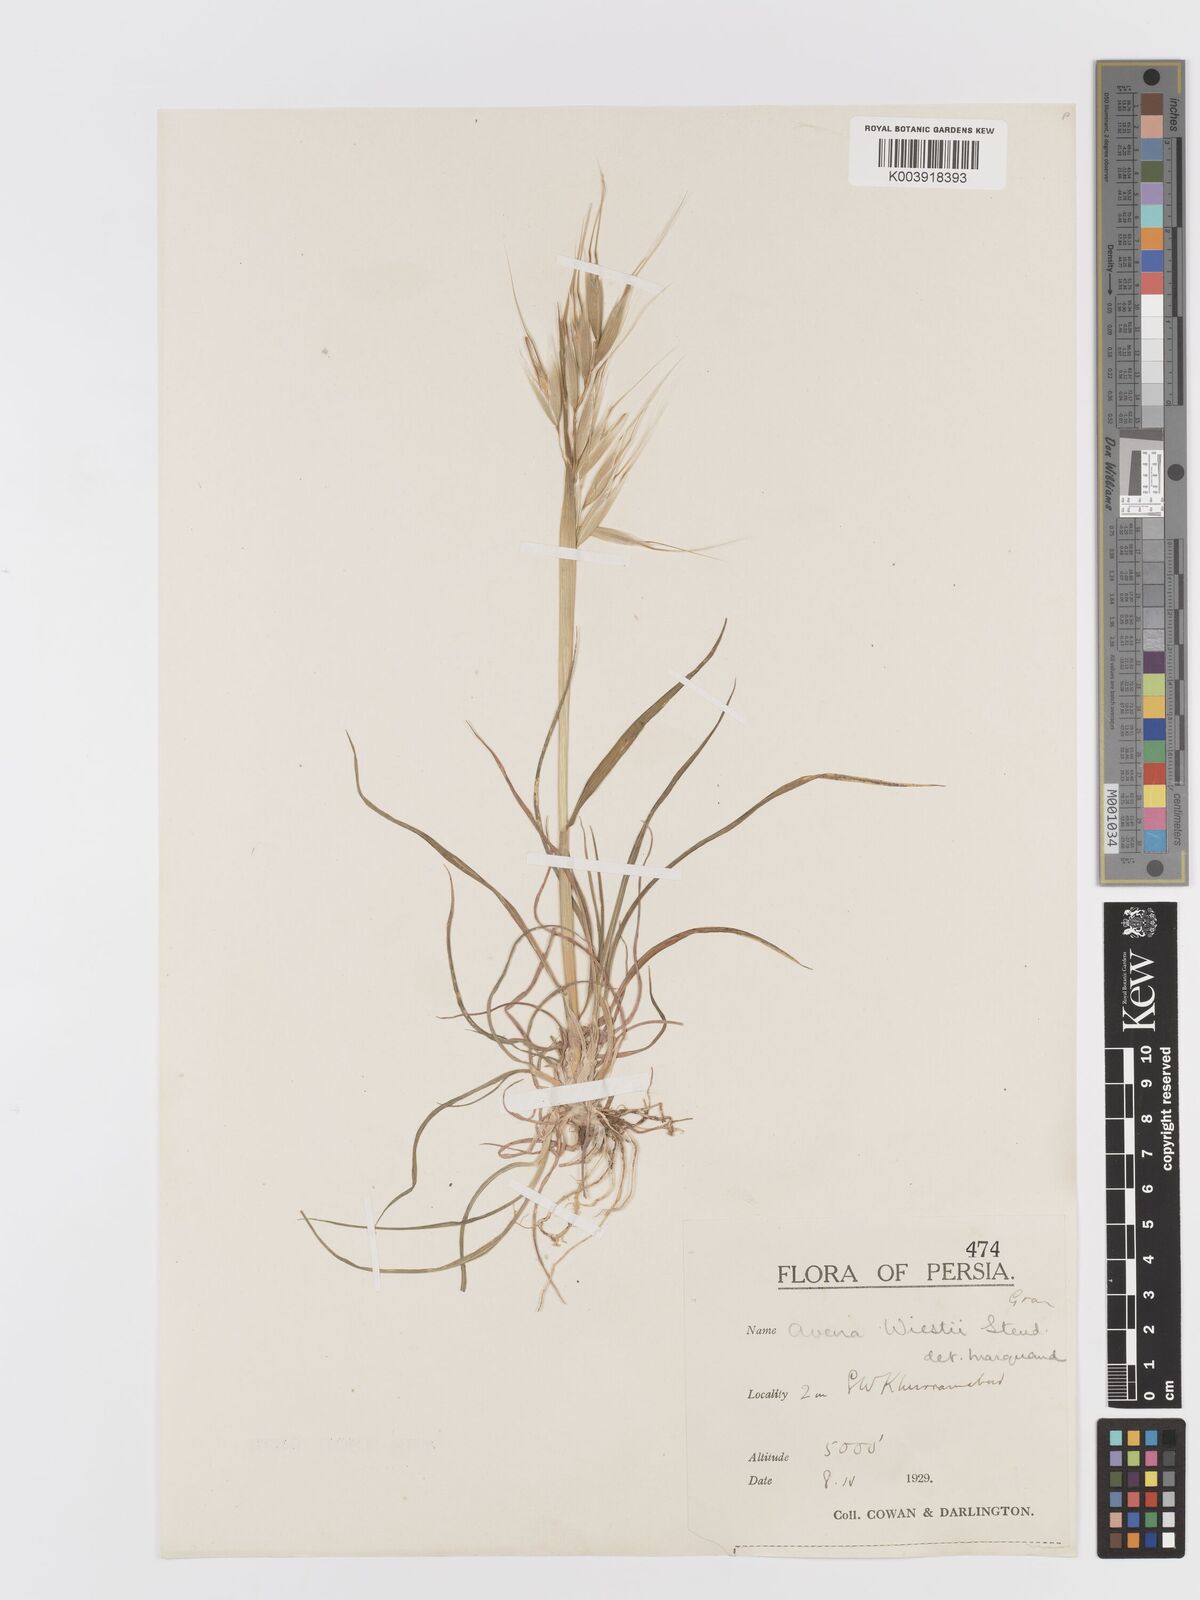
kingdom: Plantae
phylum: Tracheophyta
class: Liliopsida
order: Poales
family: Poaceae
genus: Avena
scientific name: Avena sterilis
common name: Animated oat
